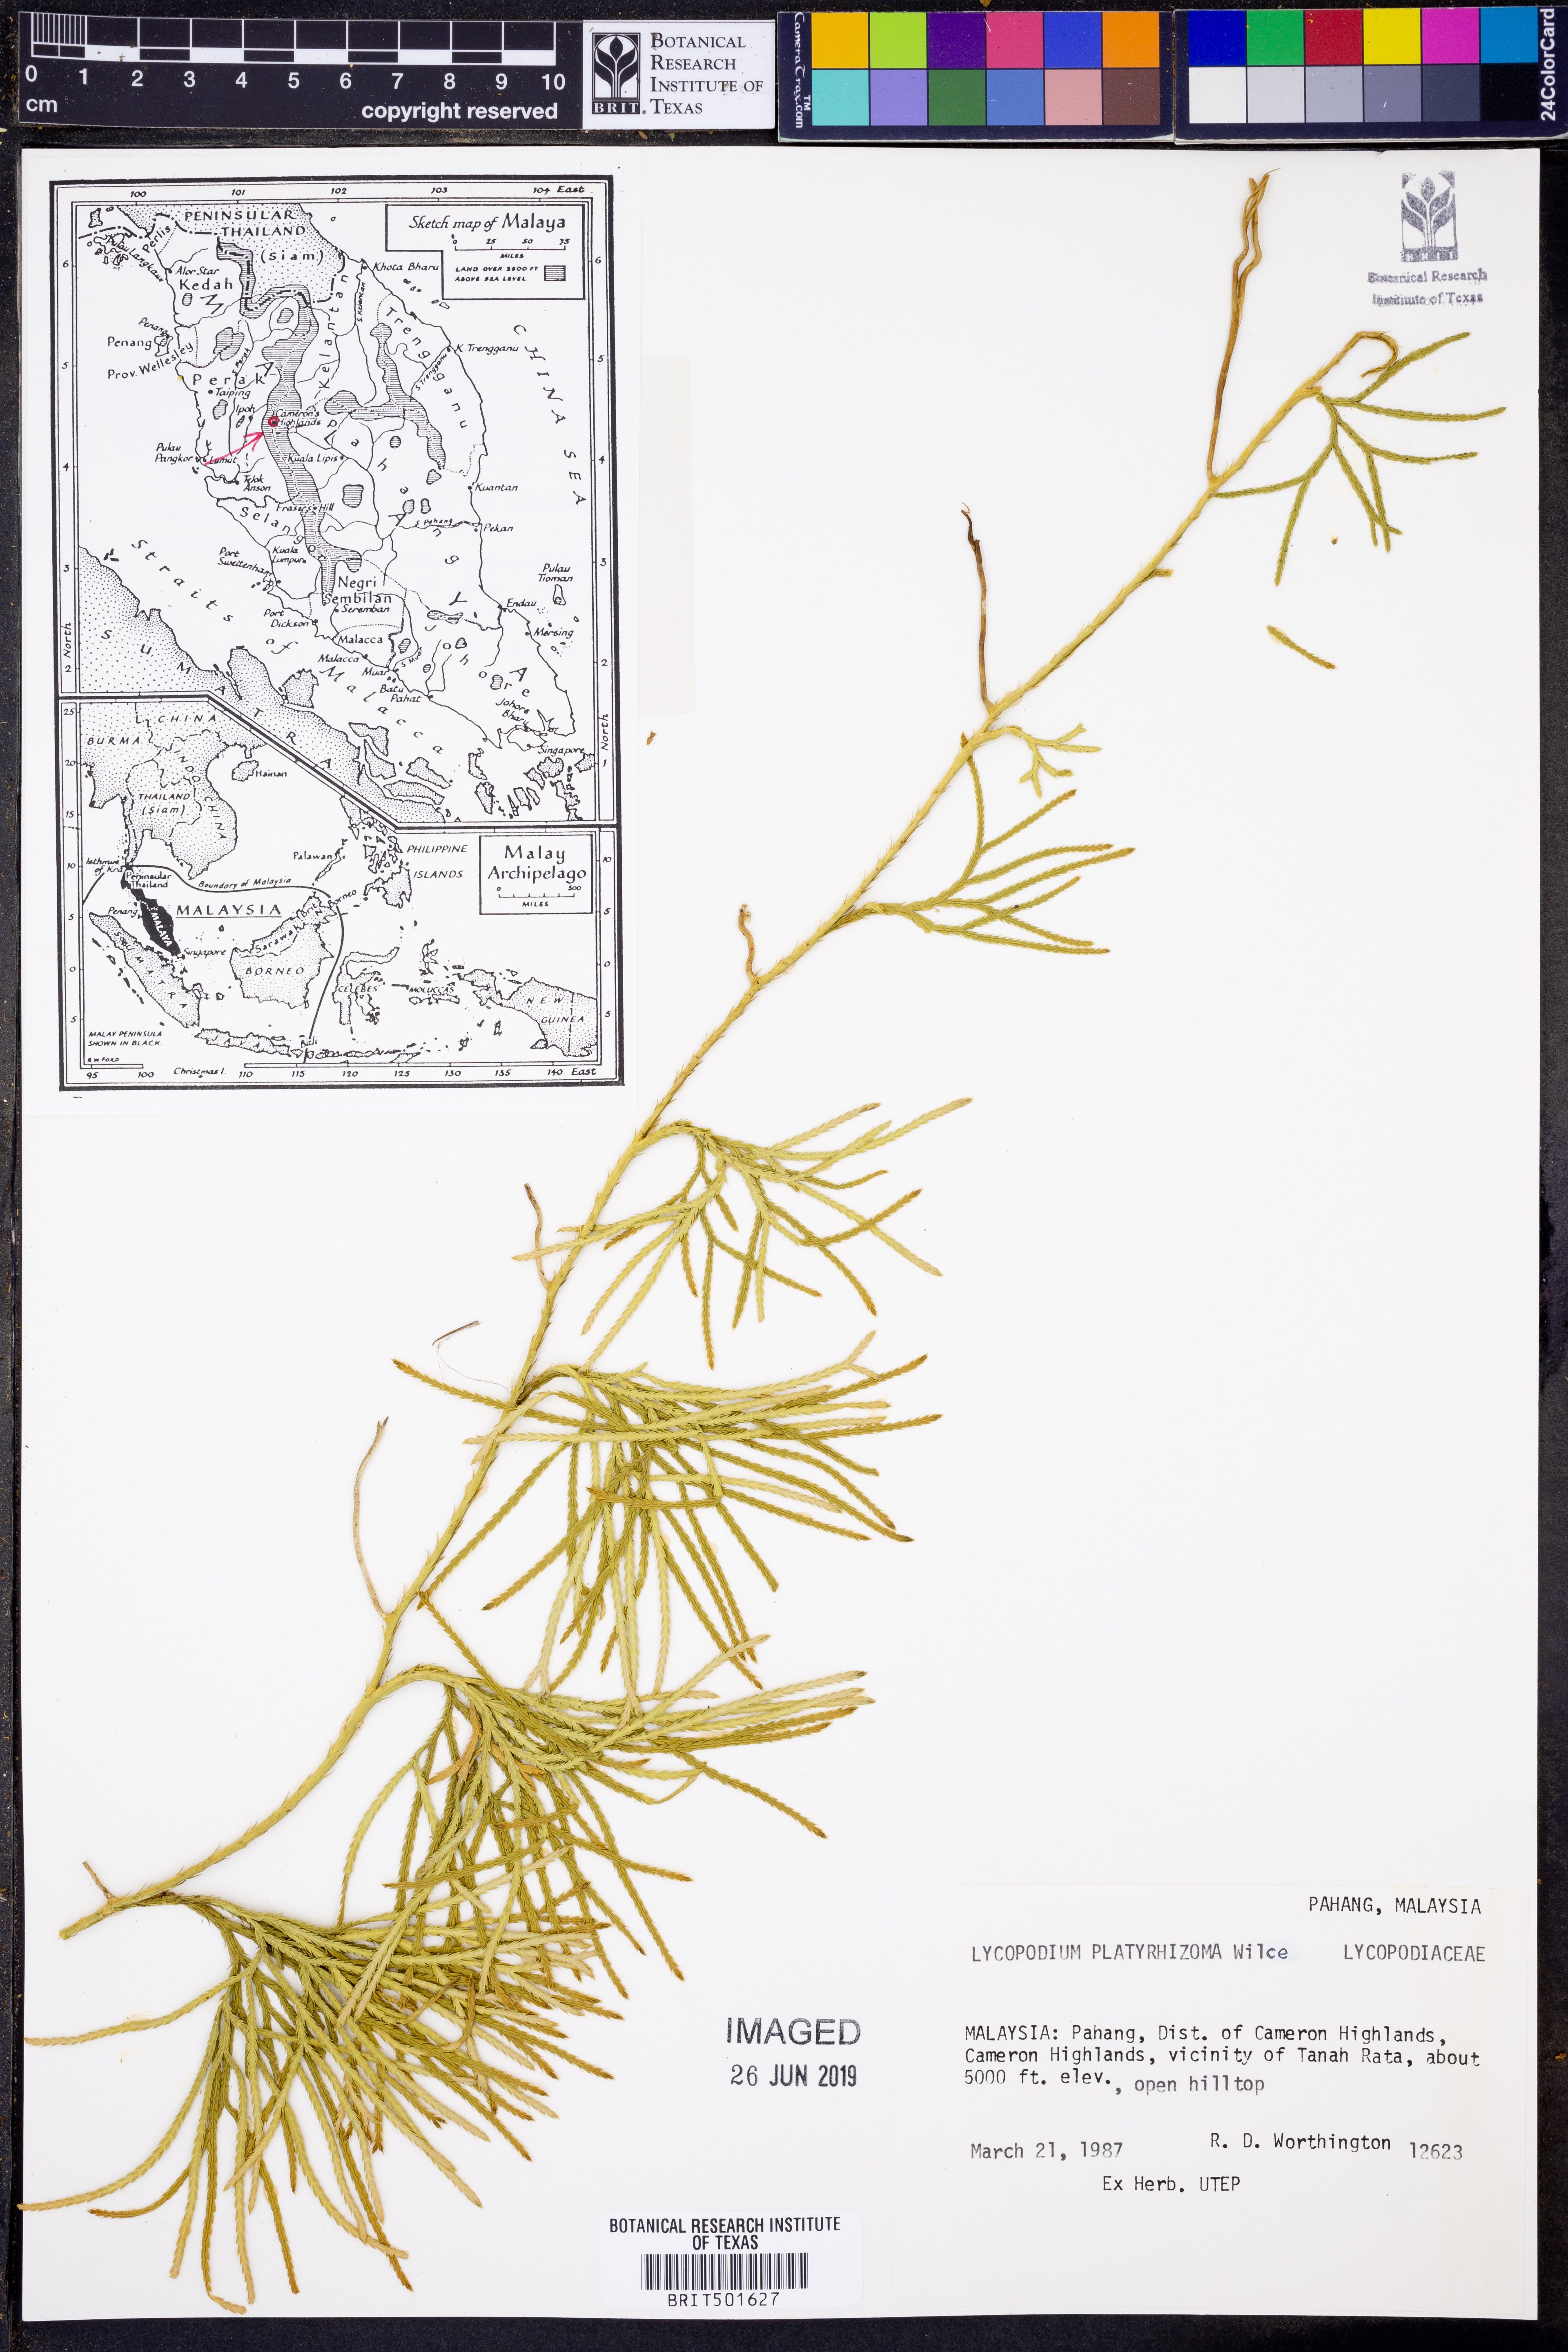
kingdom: Plantae
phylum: Tracheophyta
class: Lycopodiopsida
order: Lycopodiales
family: Lycopodiaceae
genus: Diphasiastrum
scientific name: Diphasiastrum platyrhizoma
